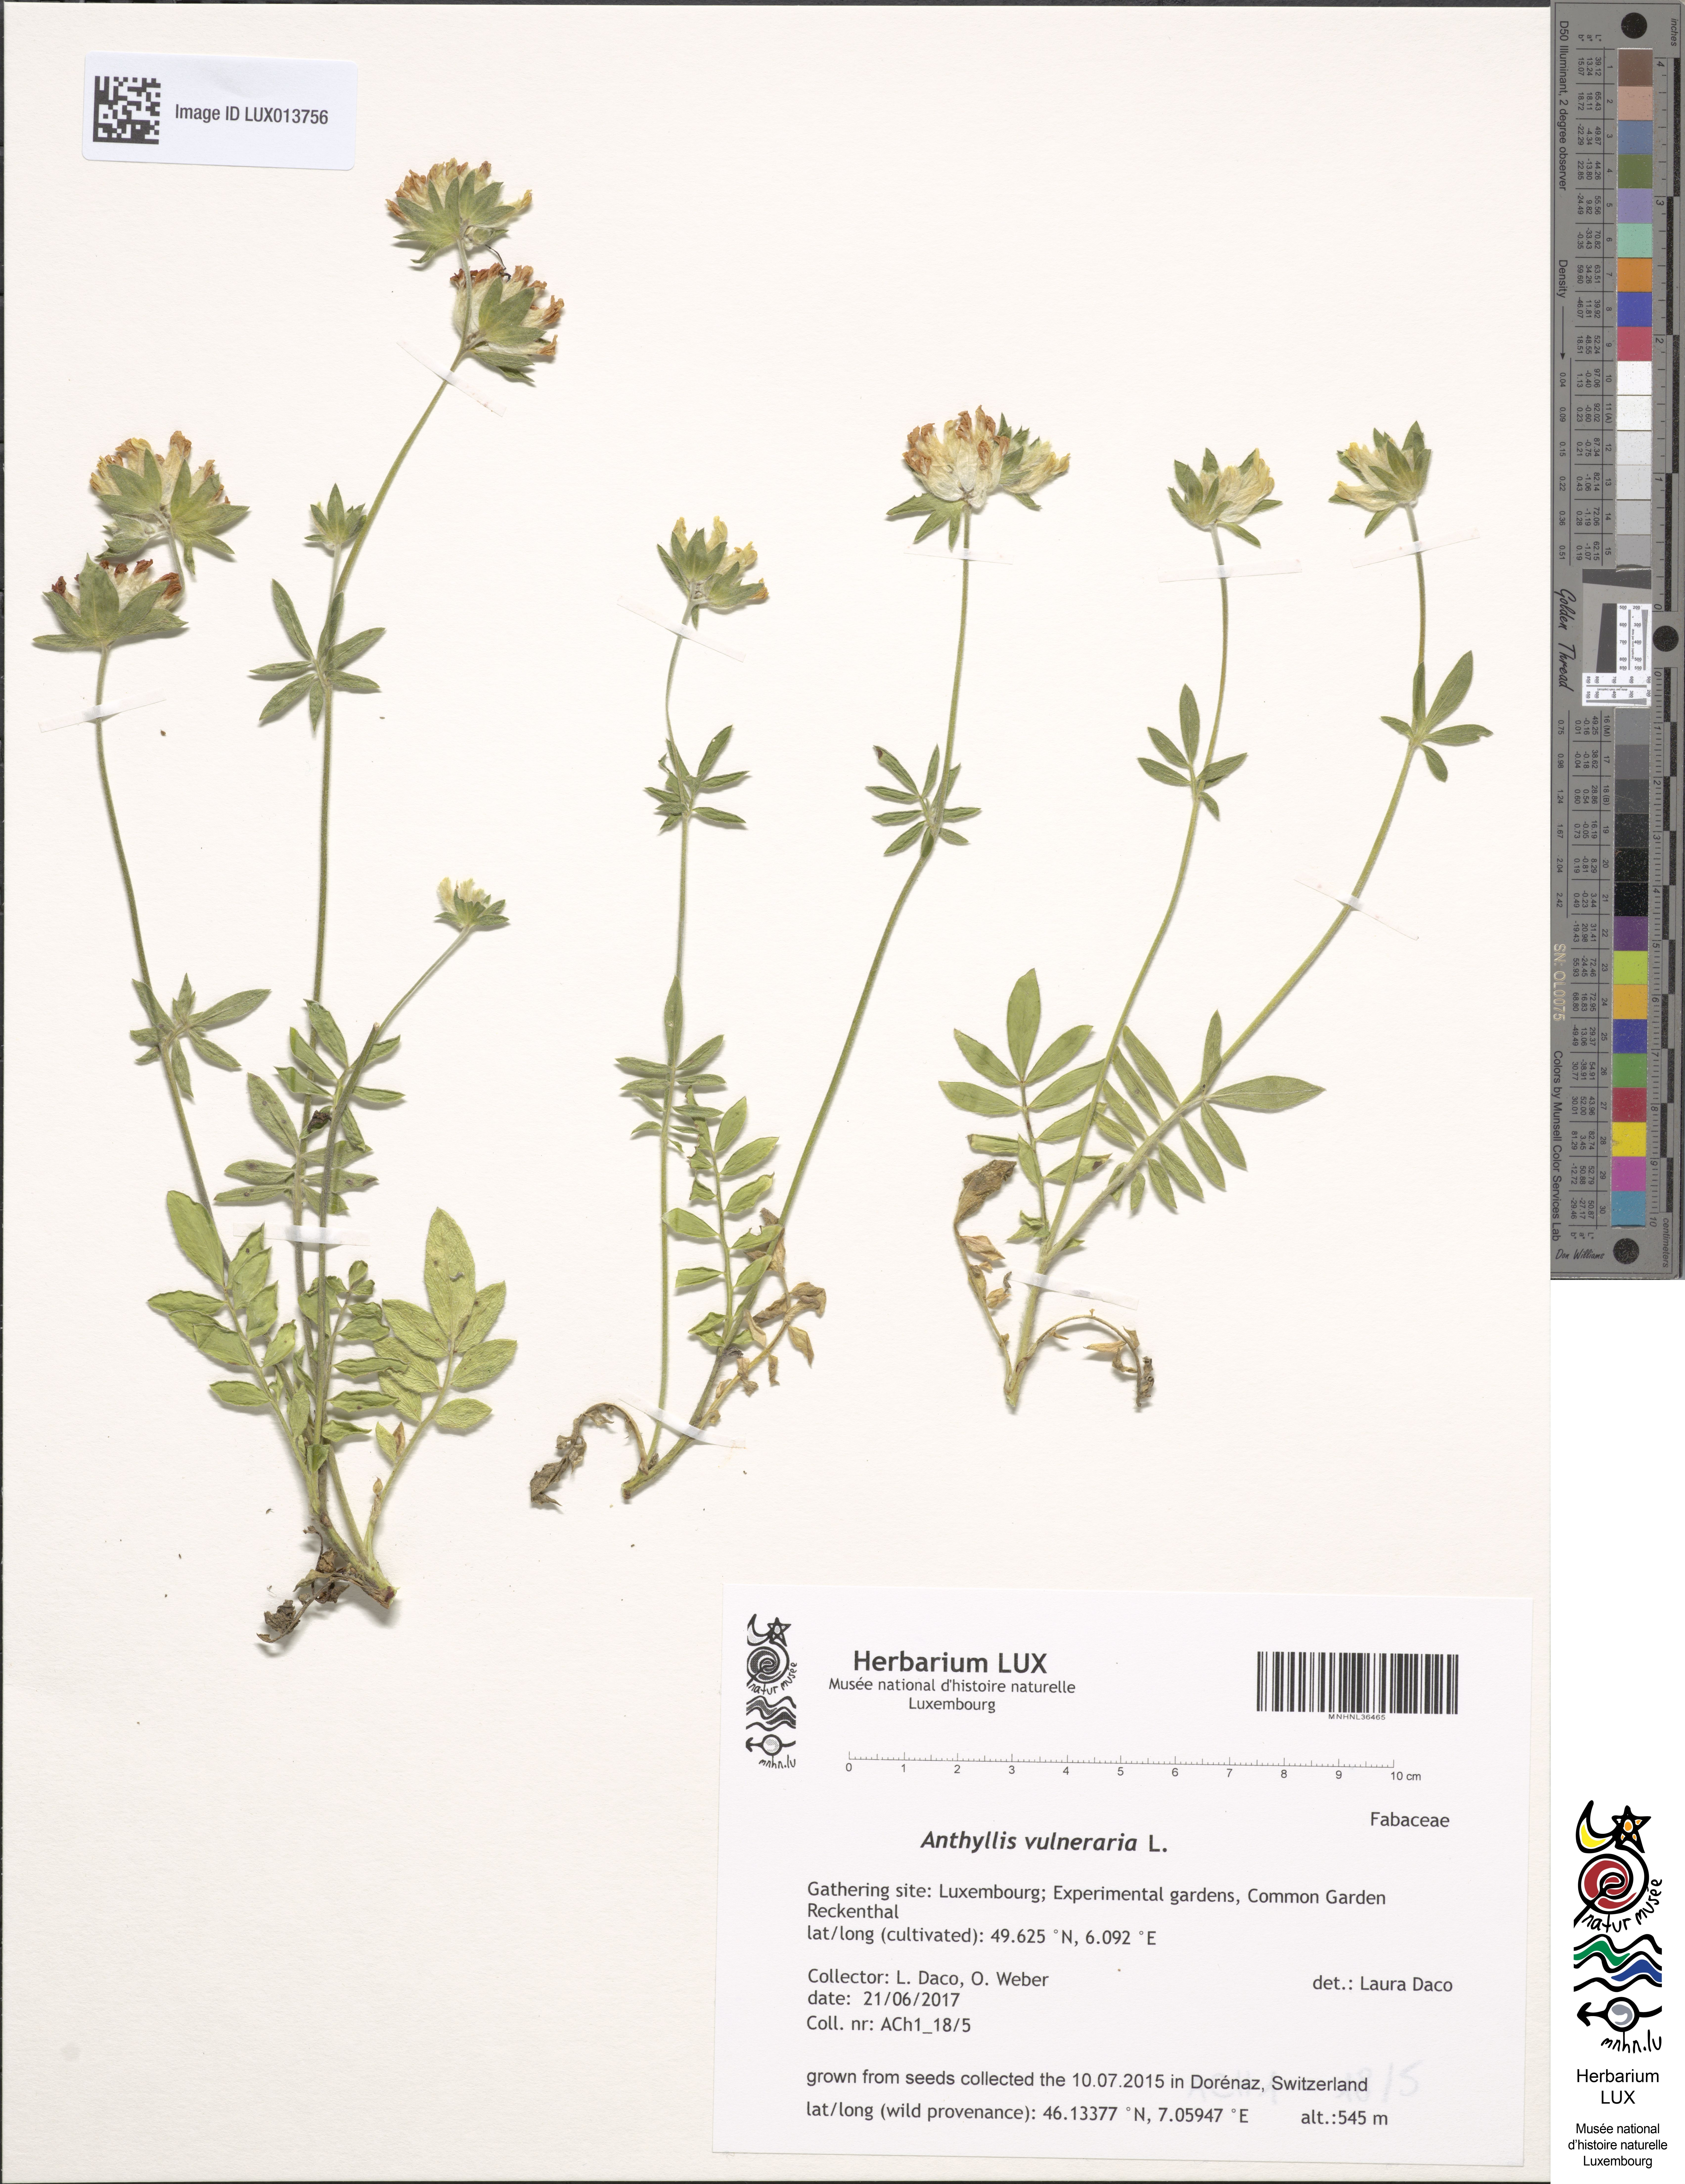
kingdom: Plantae
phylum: Tracheophyta
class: Magnoliopsida
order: Fabales
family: Fabaceae
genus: Anthyllis
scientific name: Anthyllis vulneraria
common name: Kidney vetch
